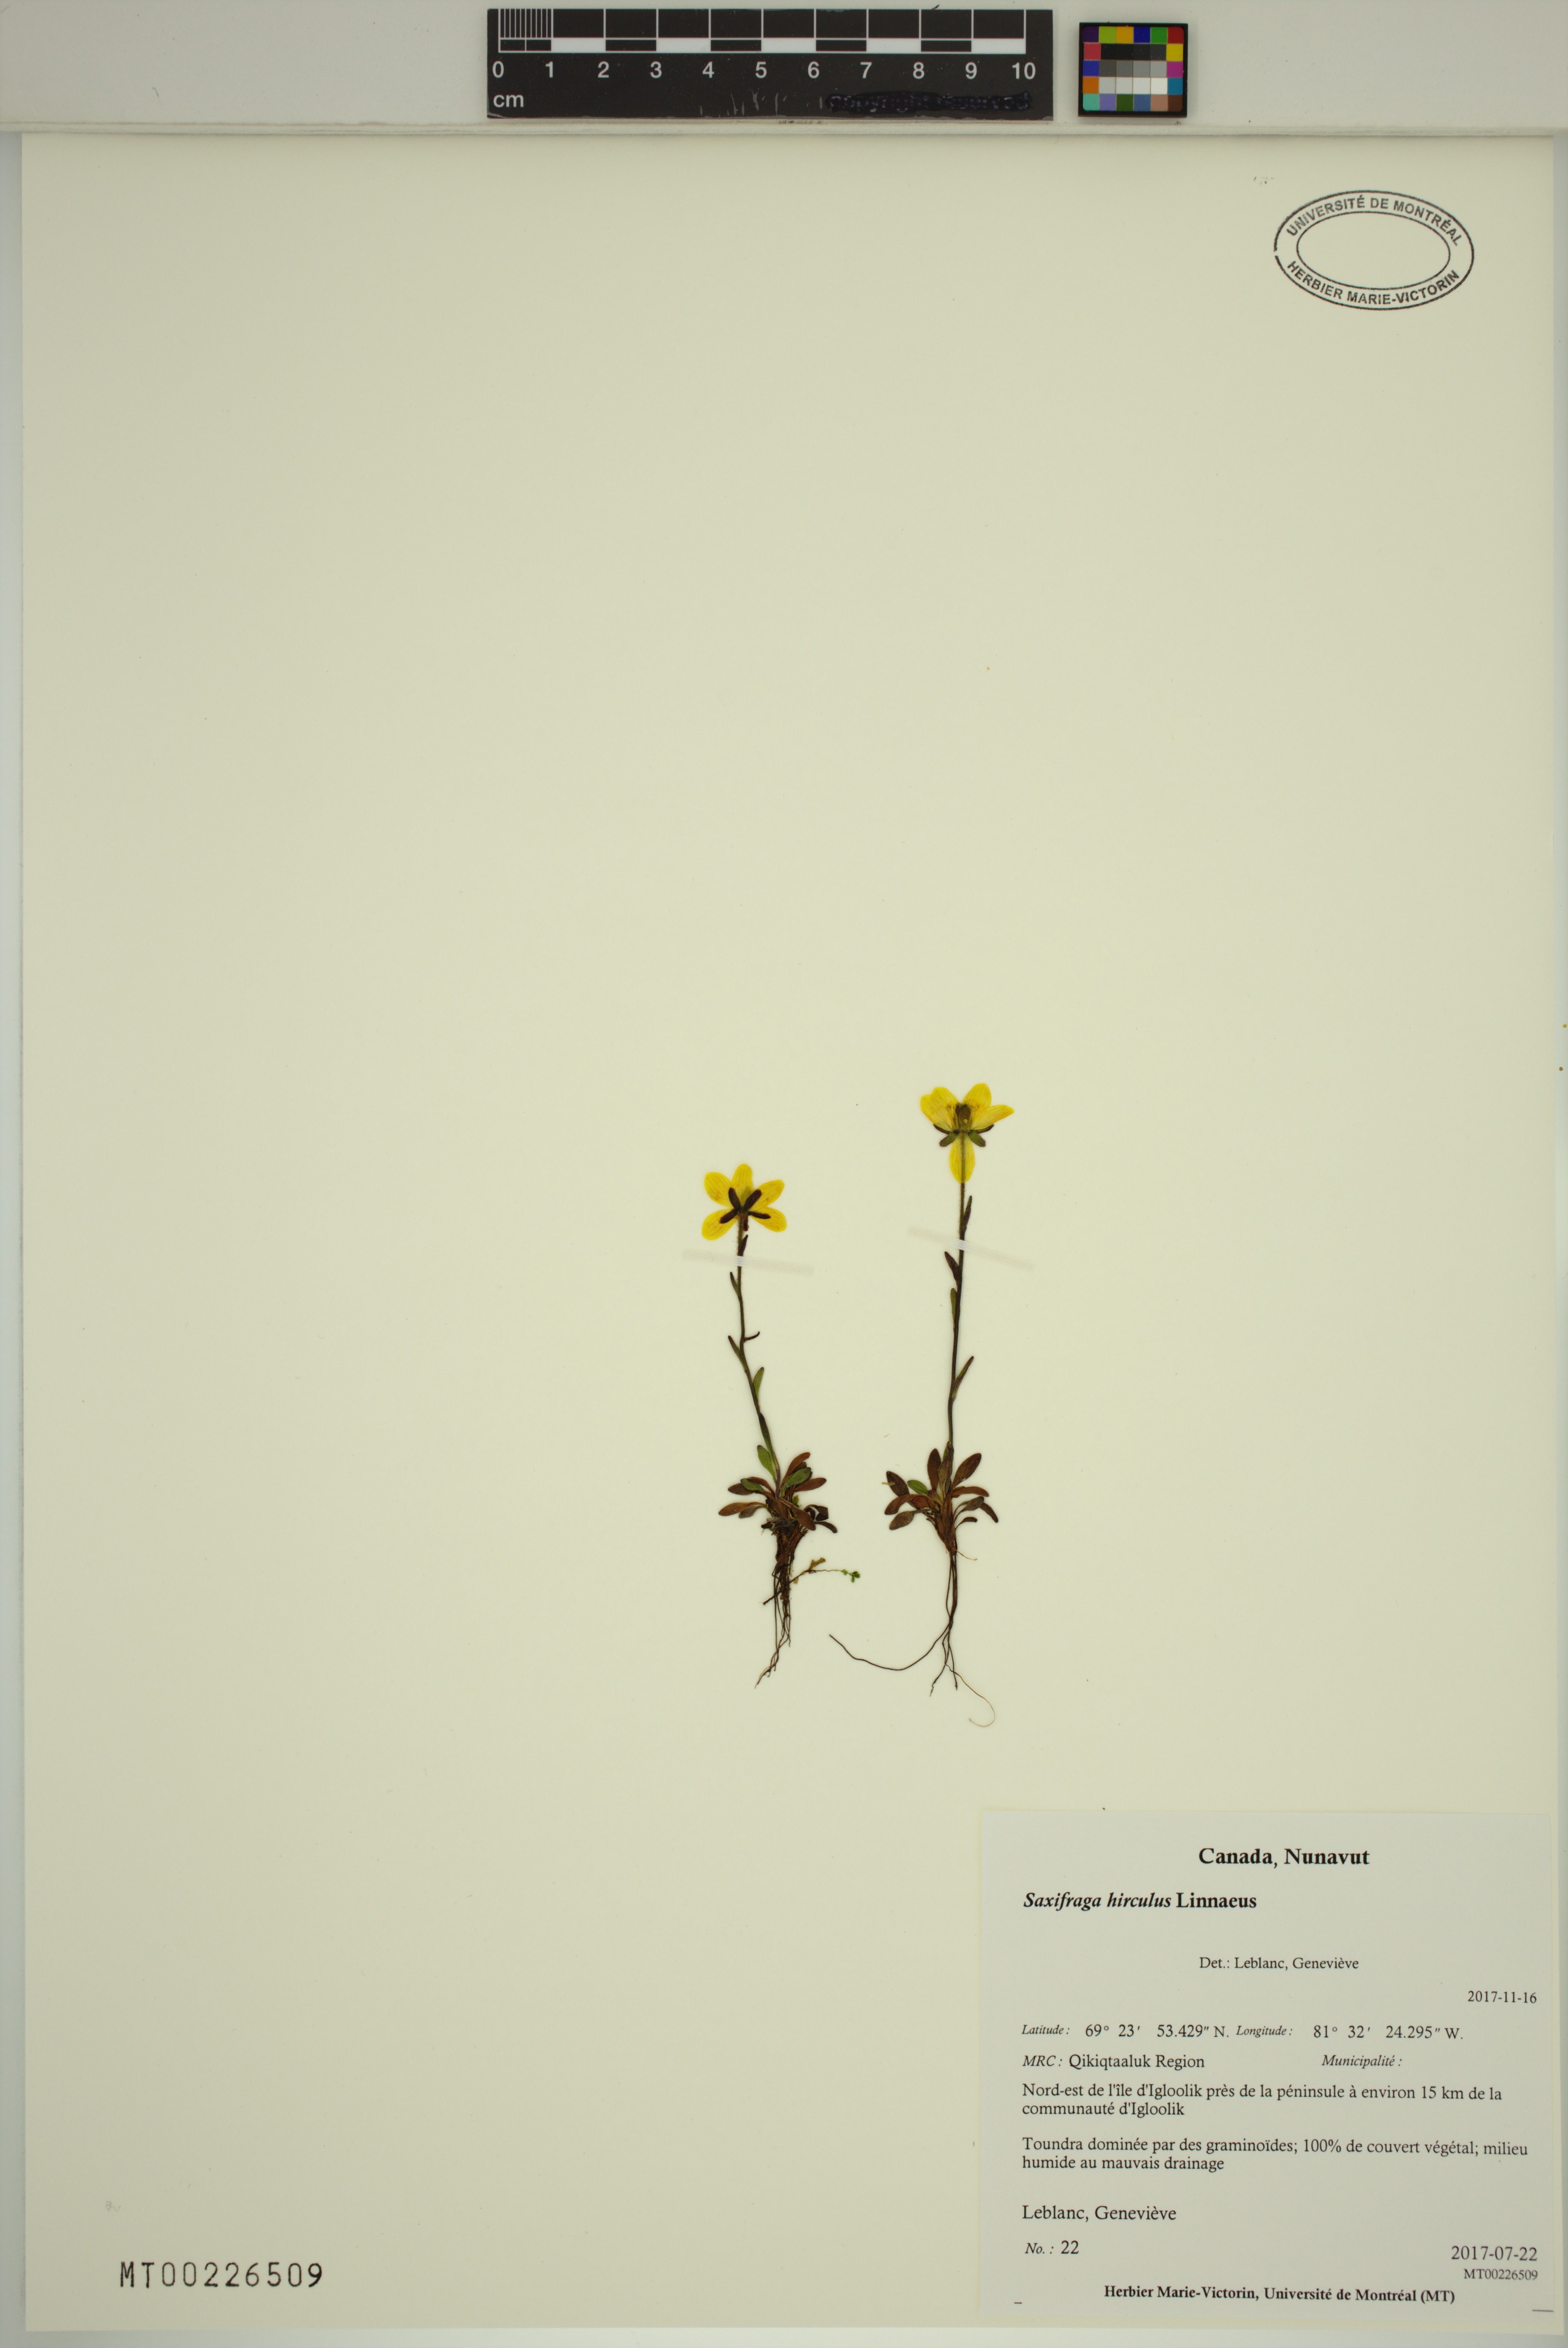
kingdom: Plantae
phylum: Tracheophyta
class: Magnoliopsida
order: Saxifragales
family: Saxifragaceae
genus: Saxifraga
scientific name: Saxifraga hirculus
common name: Yellow marsh saxifrage
